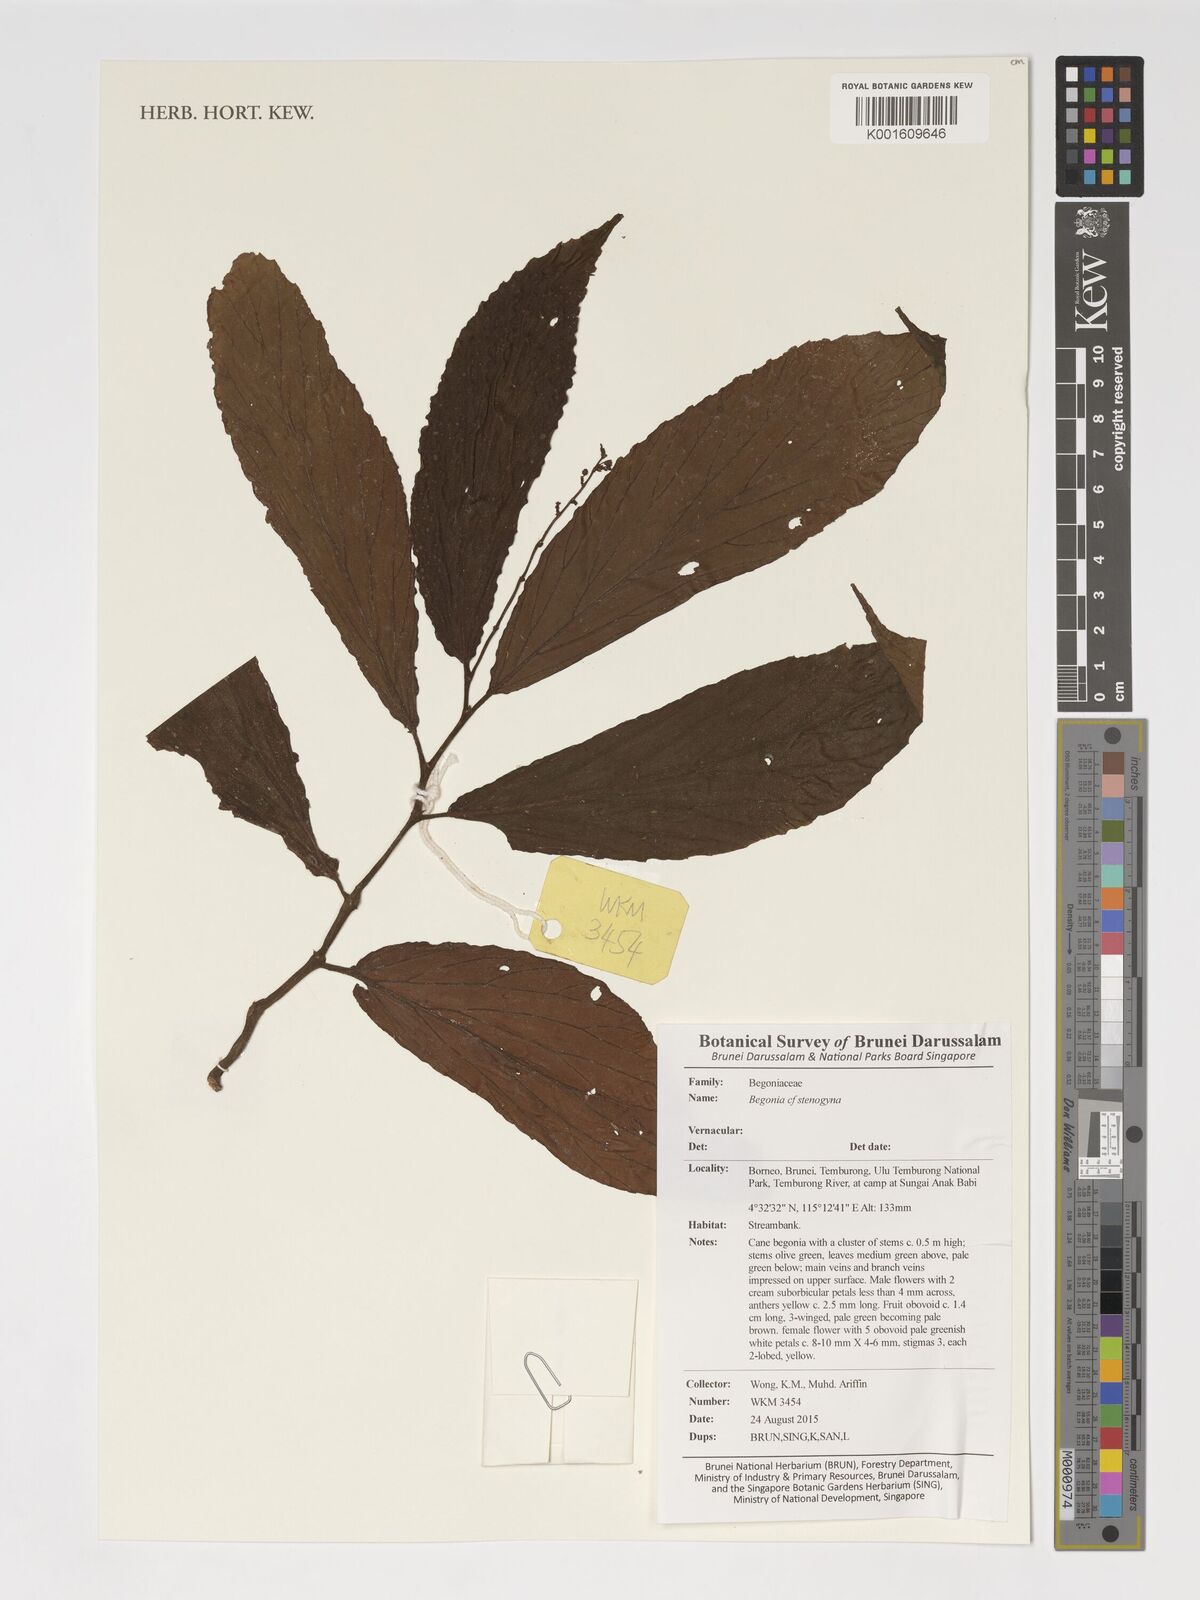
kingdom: Plantae
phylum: Tracheophyta
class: Magnoliopsida
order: Cucurbitales
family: Begoniaceae
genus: Begonia
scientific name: Begonia stenogyna
